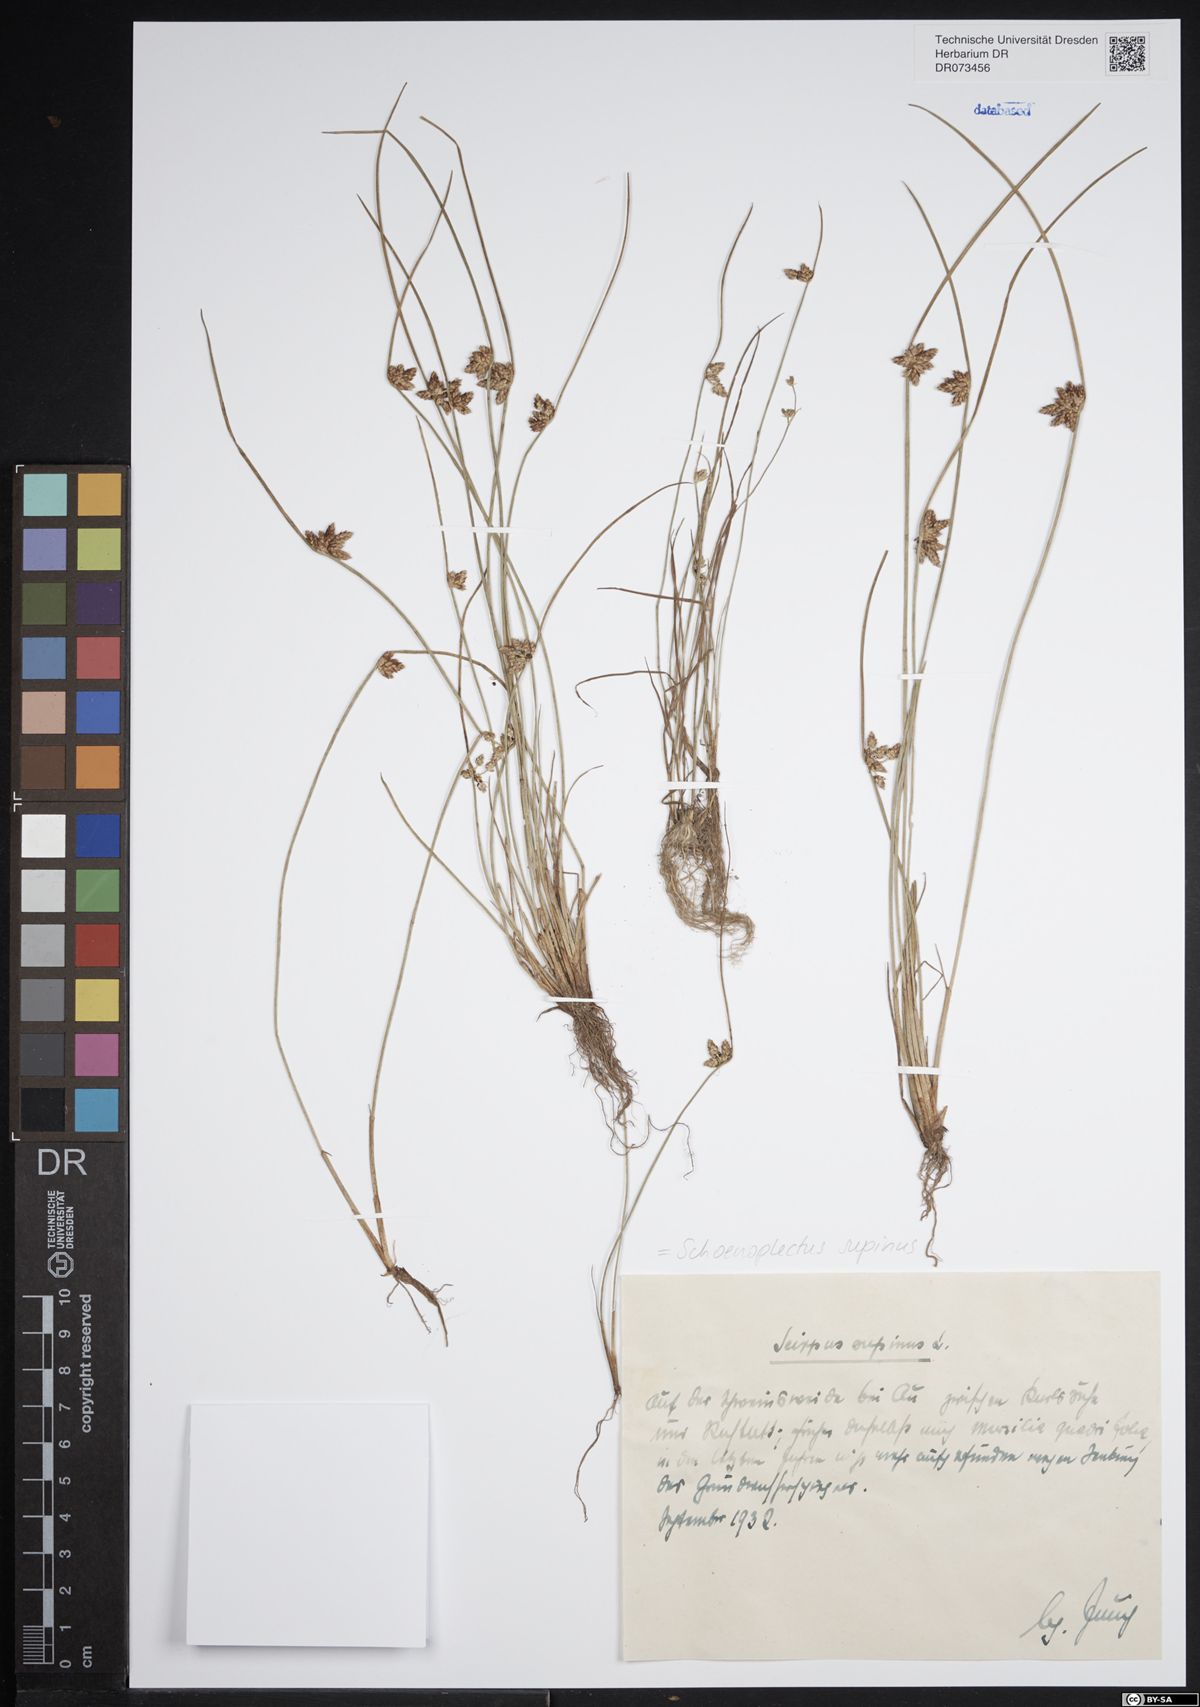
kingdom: Plantae
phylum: Tracheophyta
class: Liliopsida
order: Poales
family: Cyperaceae
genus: Schoenoplectiella
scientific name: Schoenoplectiella supina
